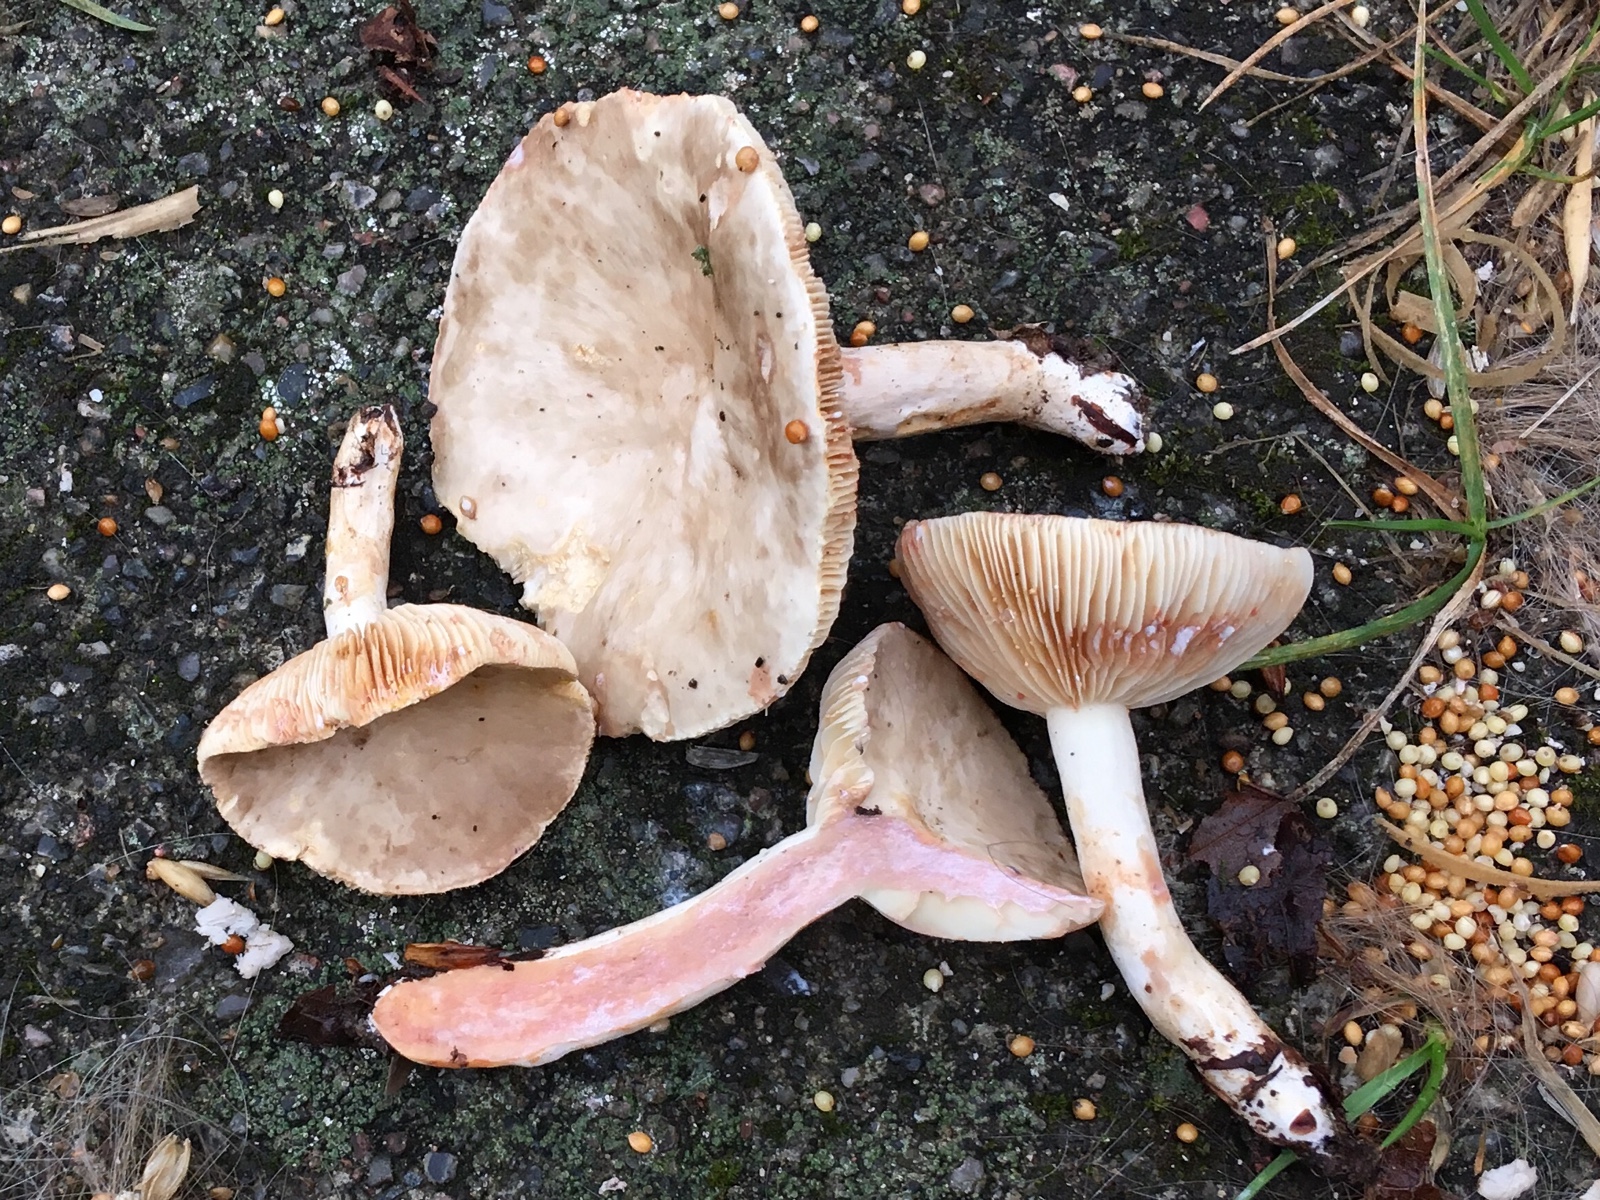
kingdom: Fungi
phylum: Basidiomycota
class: Agaricomycetes
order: Russulales
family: Russulaceae
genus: Lactarius
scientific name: Lactarius acris
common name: rosamælket mælkehat
